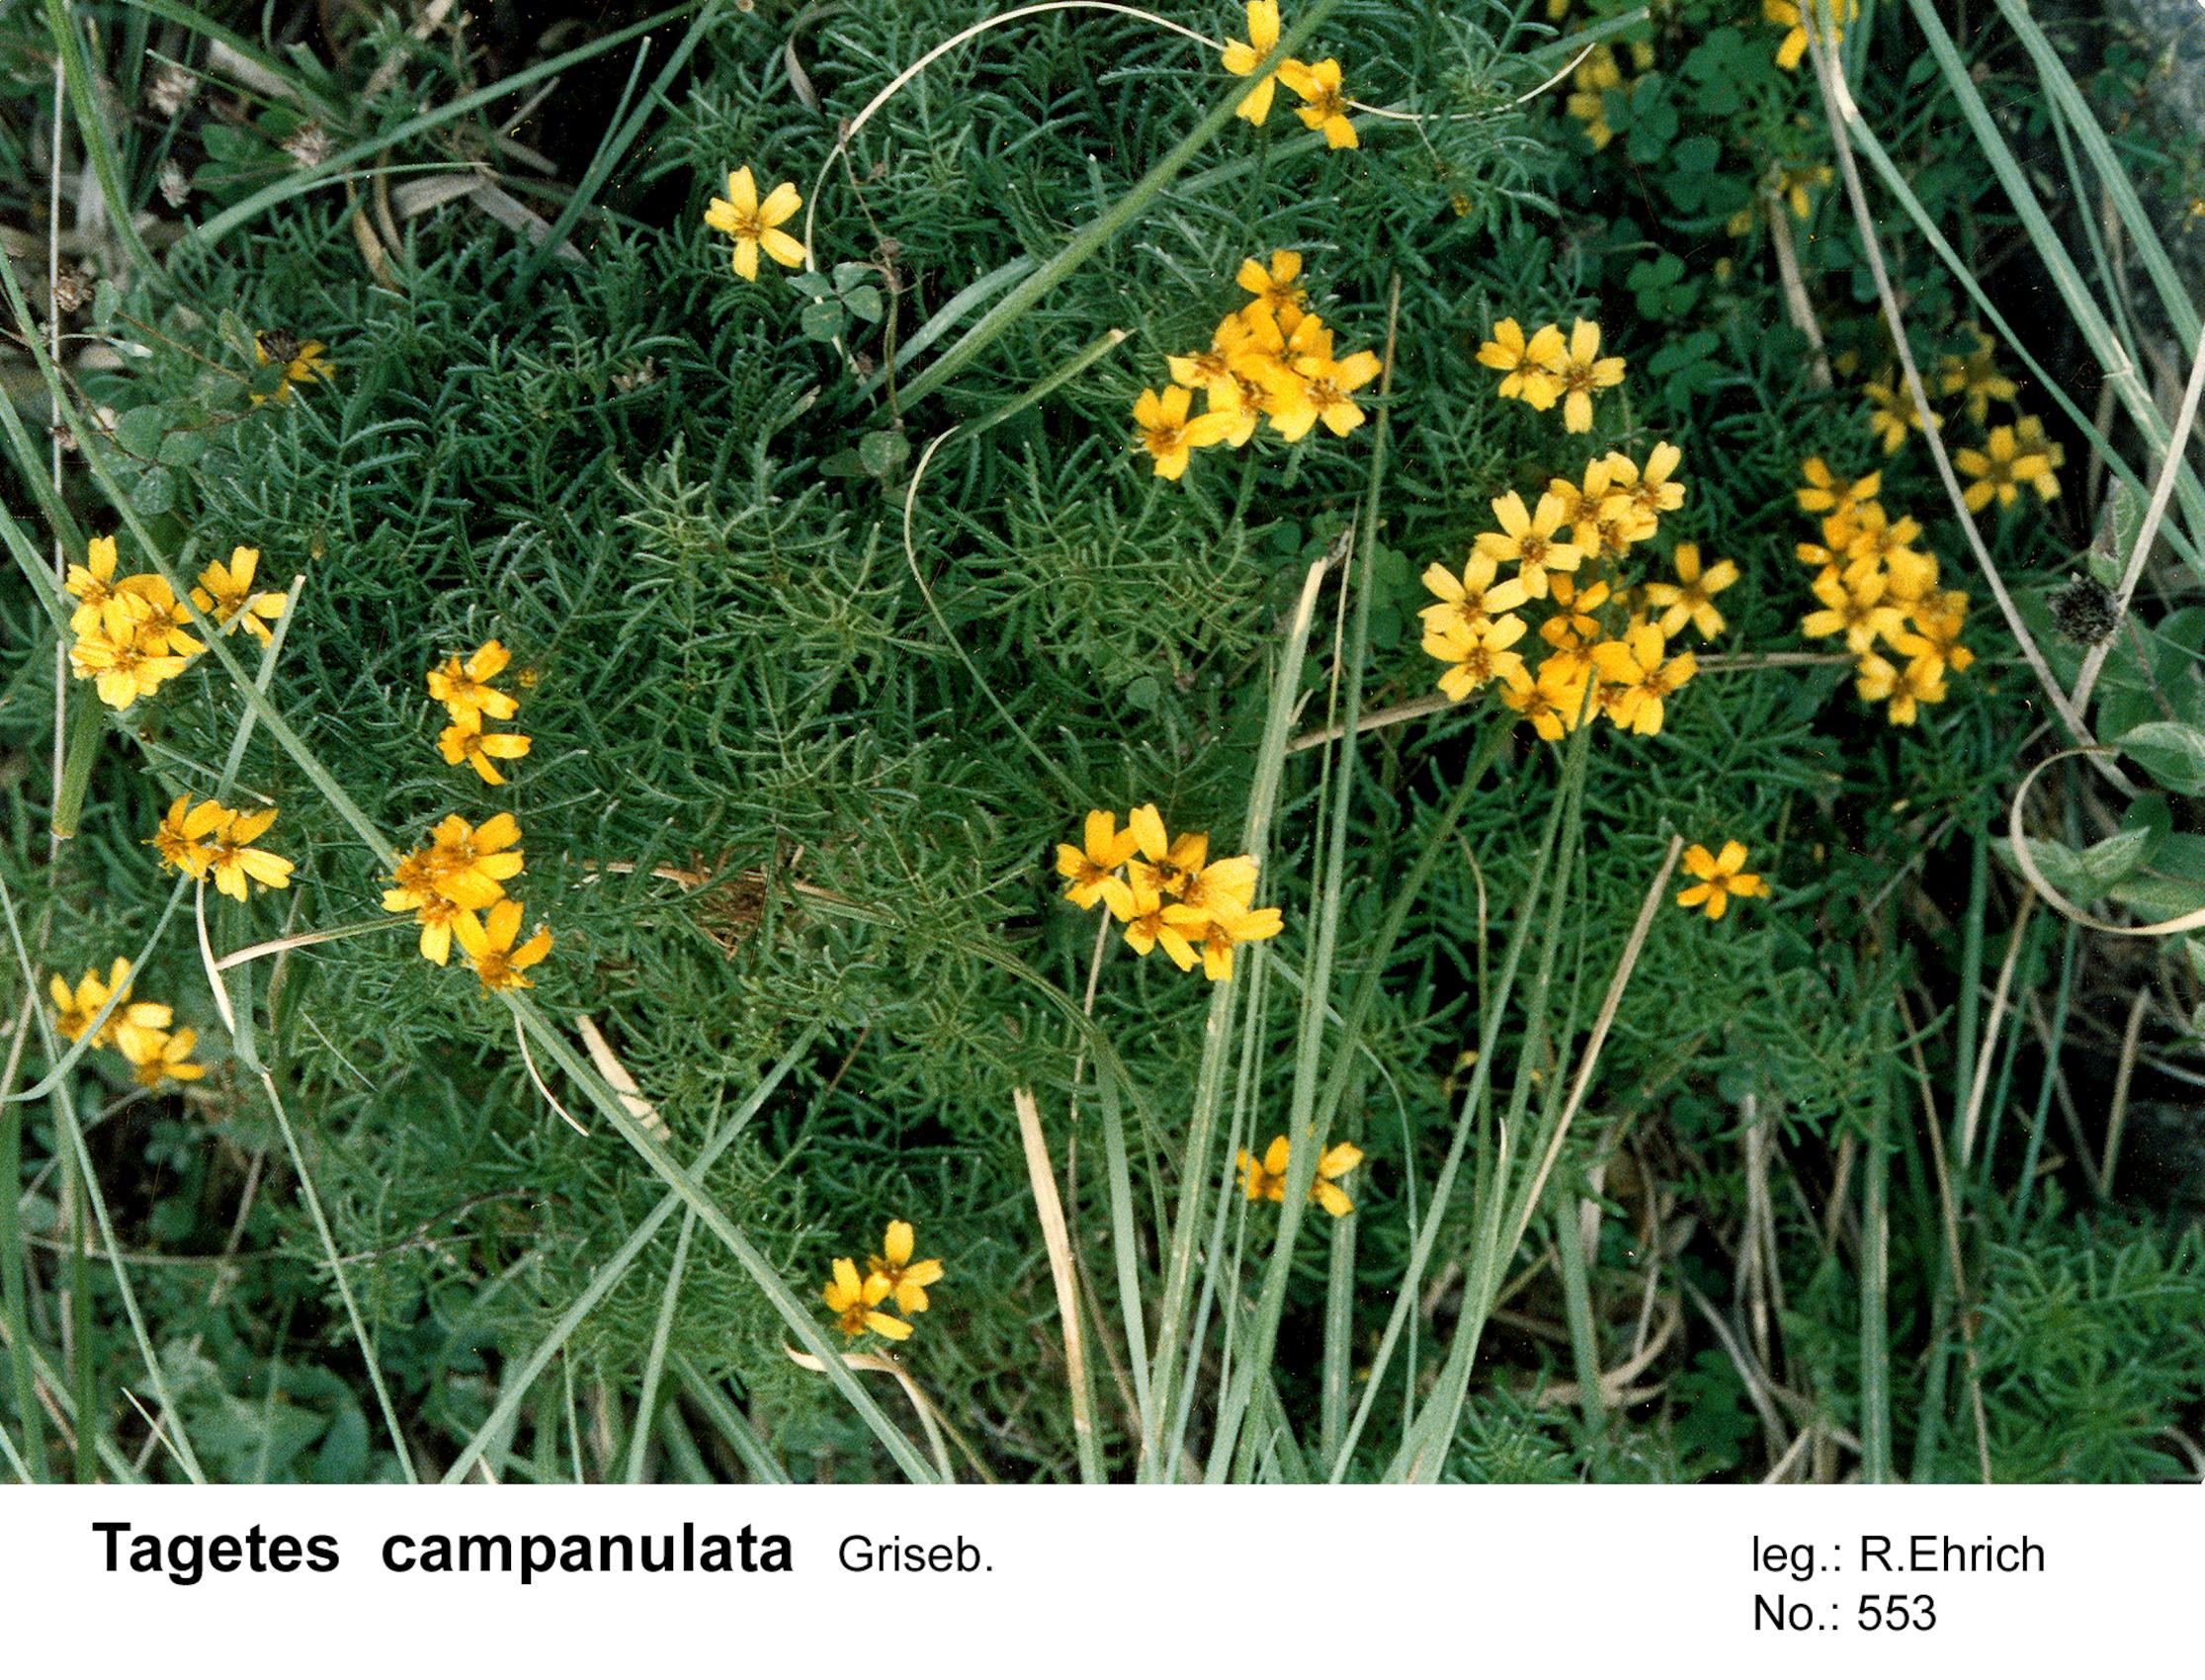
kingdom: Plantae
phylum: Tracheophyta
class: Magnoliopsida
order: Asterales
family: Asteraceae
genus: Tagetes
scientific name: Tagetes campanulata
